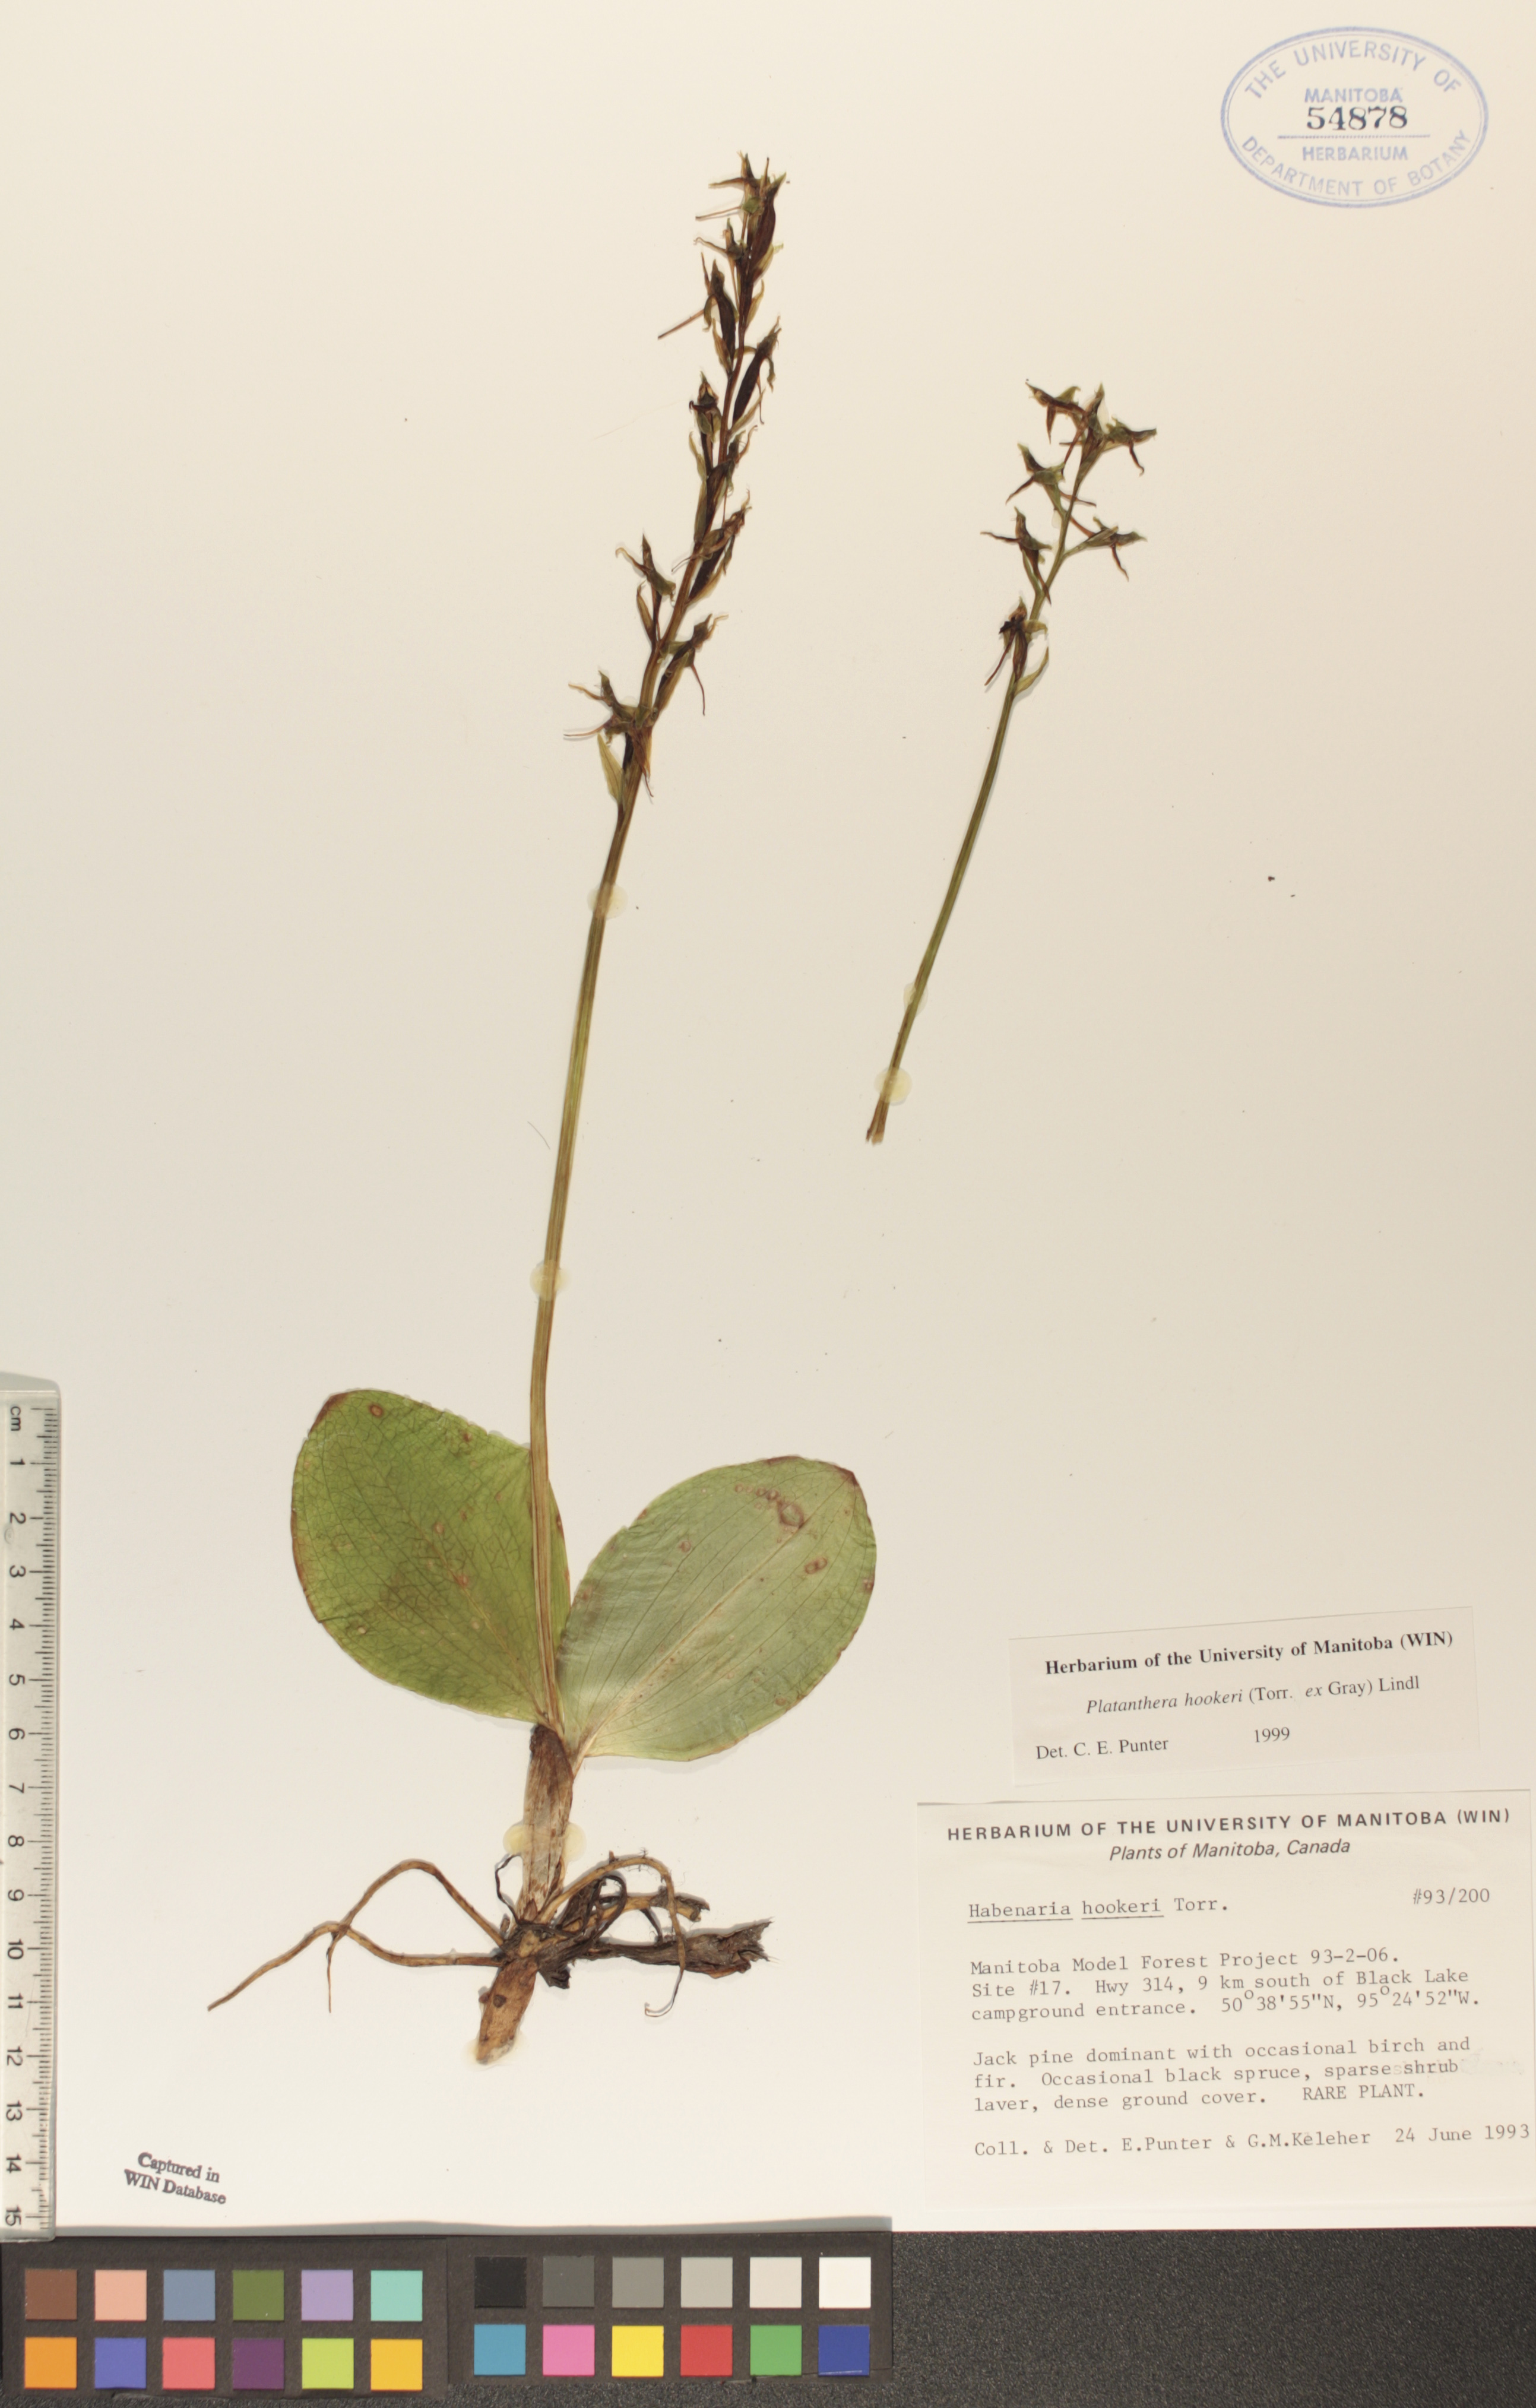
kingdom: Plantae
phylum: Tracheophyta
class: Liliopsida
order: Asparagales
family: Orchidaceae
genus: Platanthera
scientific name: Platanthera hookeri
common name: Hooker's orchid
